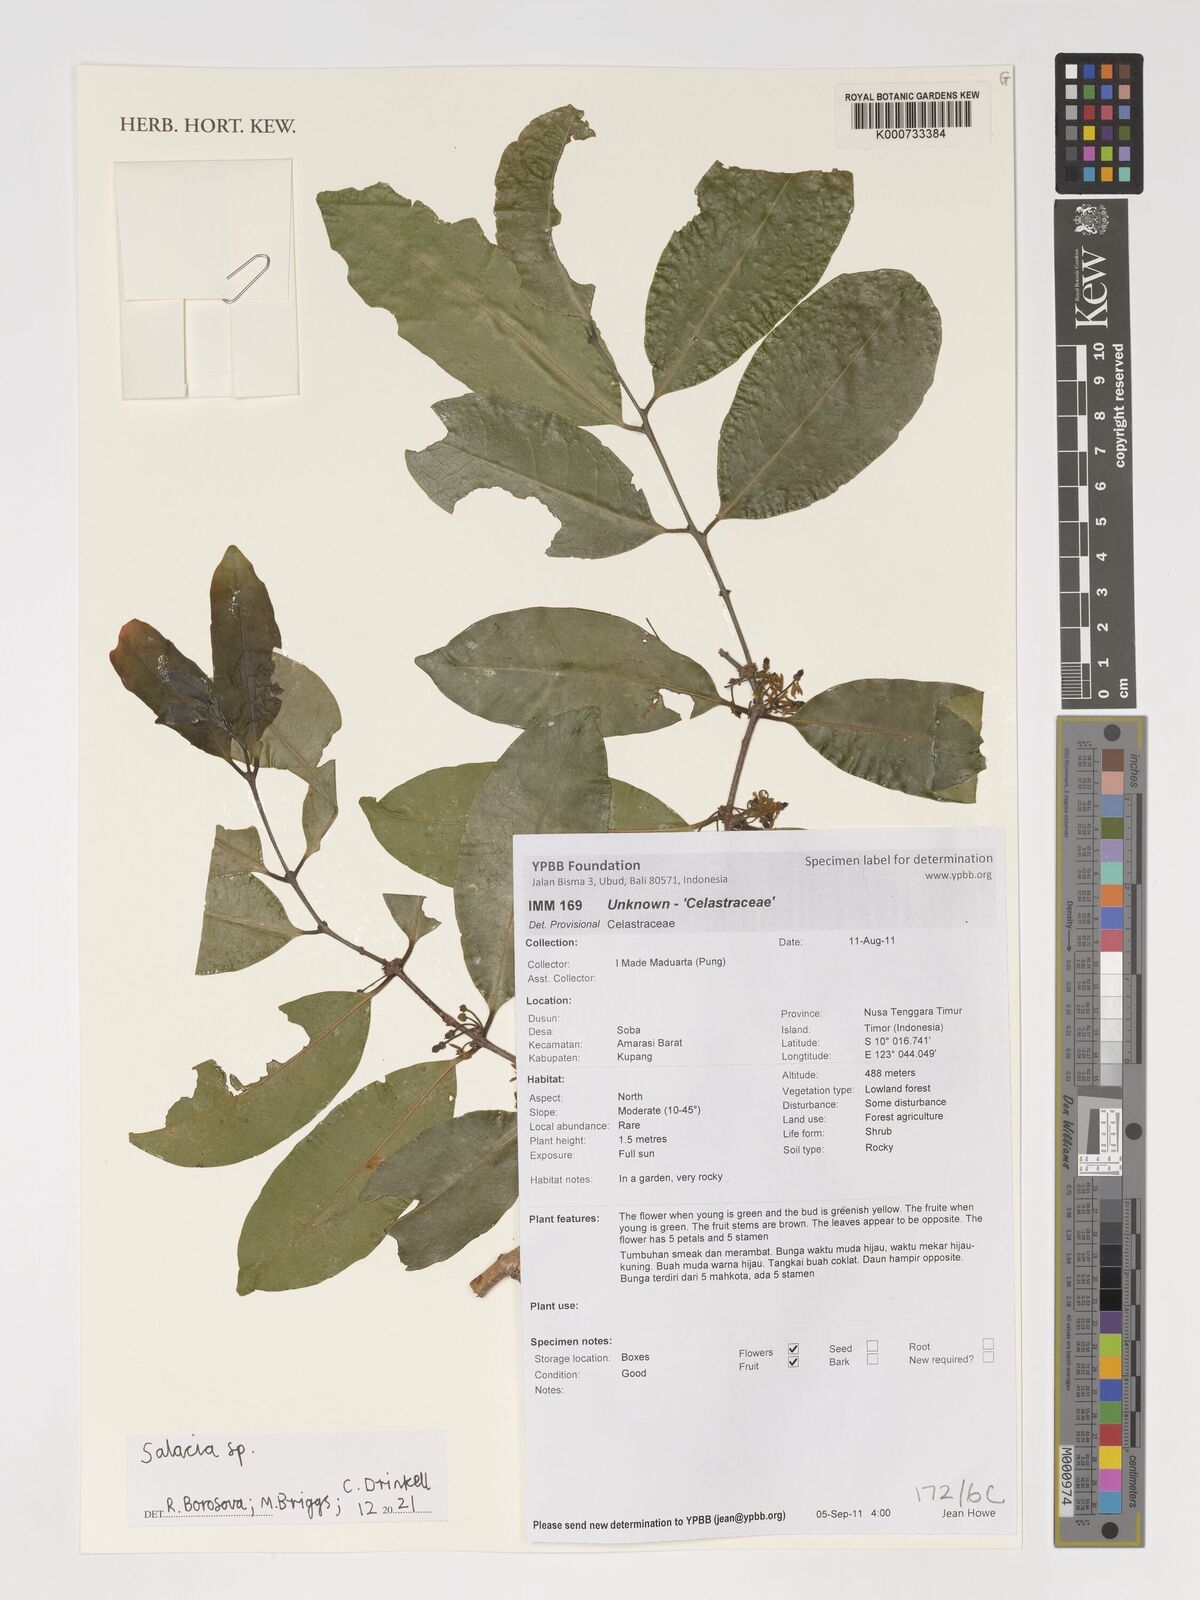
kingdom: Plantae
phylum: Tracheophyta
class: Magnoliopsida
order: Celastrales
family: Celastraceae
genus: Salacia
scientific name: Salacia
